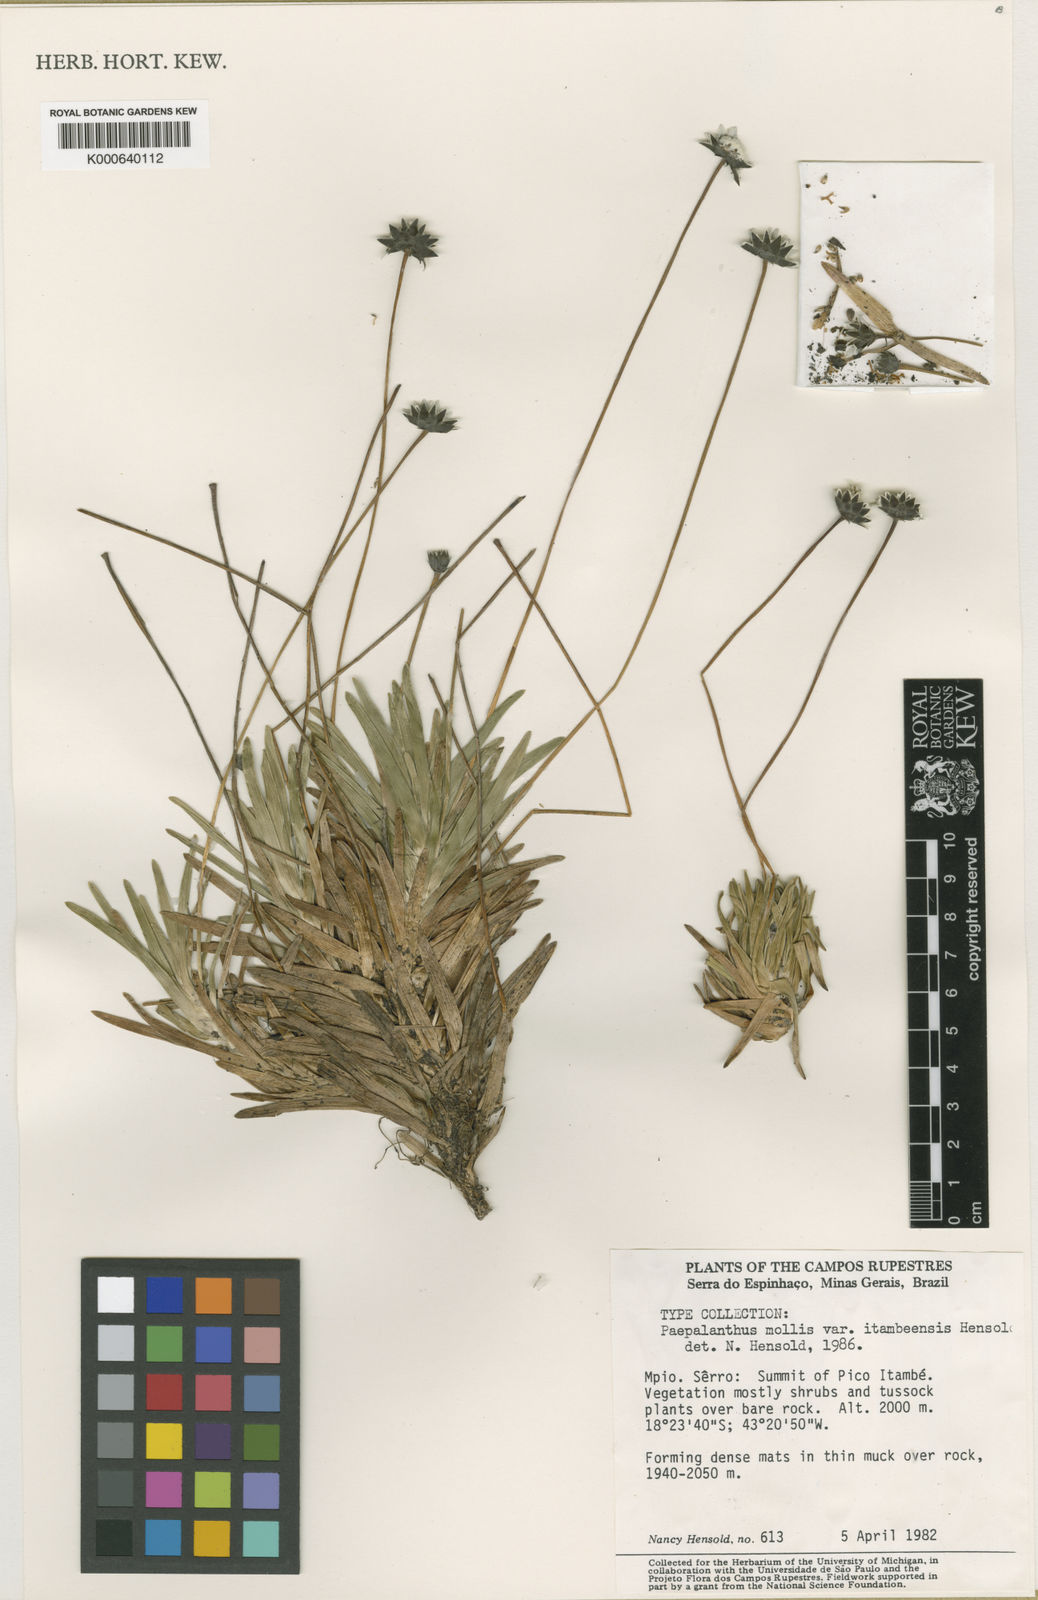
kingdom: Plantae
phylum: Tracheophyta
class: Liliopsida
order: Poales
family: Eriocaulaceae
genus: Paepalanthus
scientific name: Paepalanthus mollis
